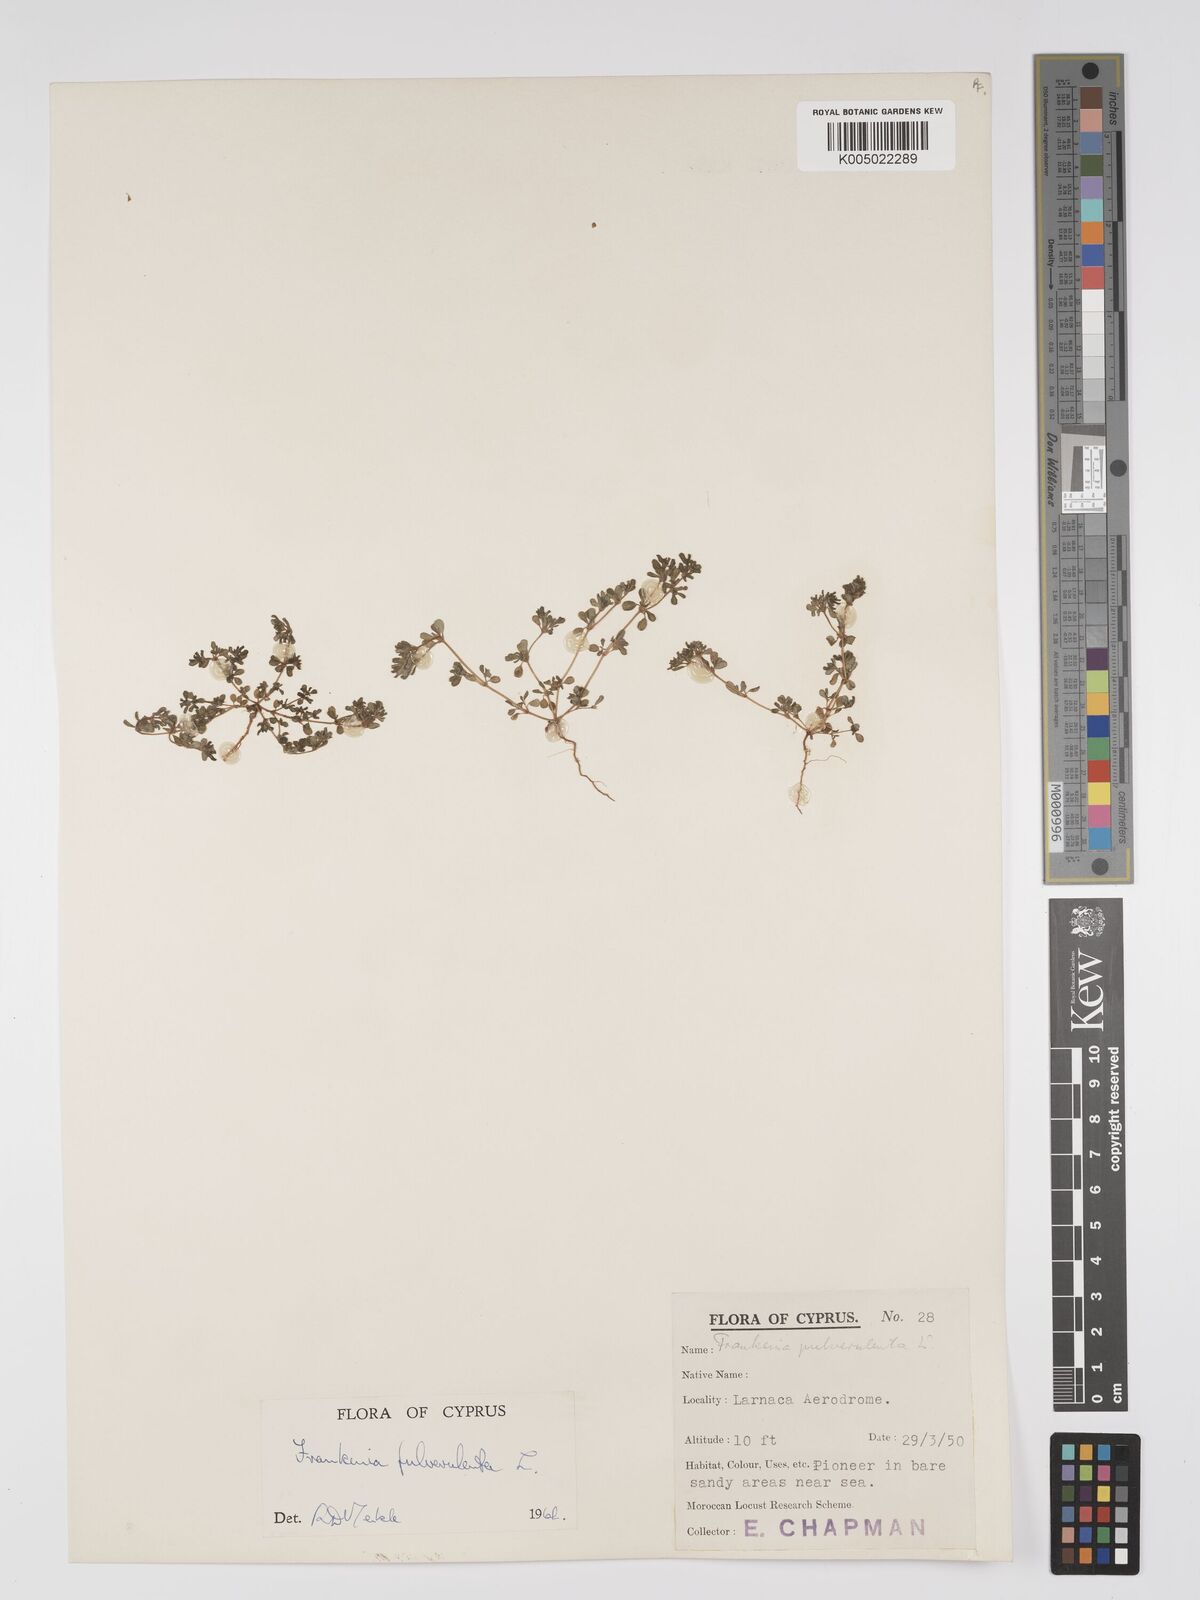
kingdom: Plantae
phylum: Tracheophyta
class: Magnoliopsida
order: Caryophyllales
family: Frankeniaceae
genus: Frankenia
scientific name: Frankenia pulverulenta
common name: European seaheath
